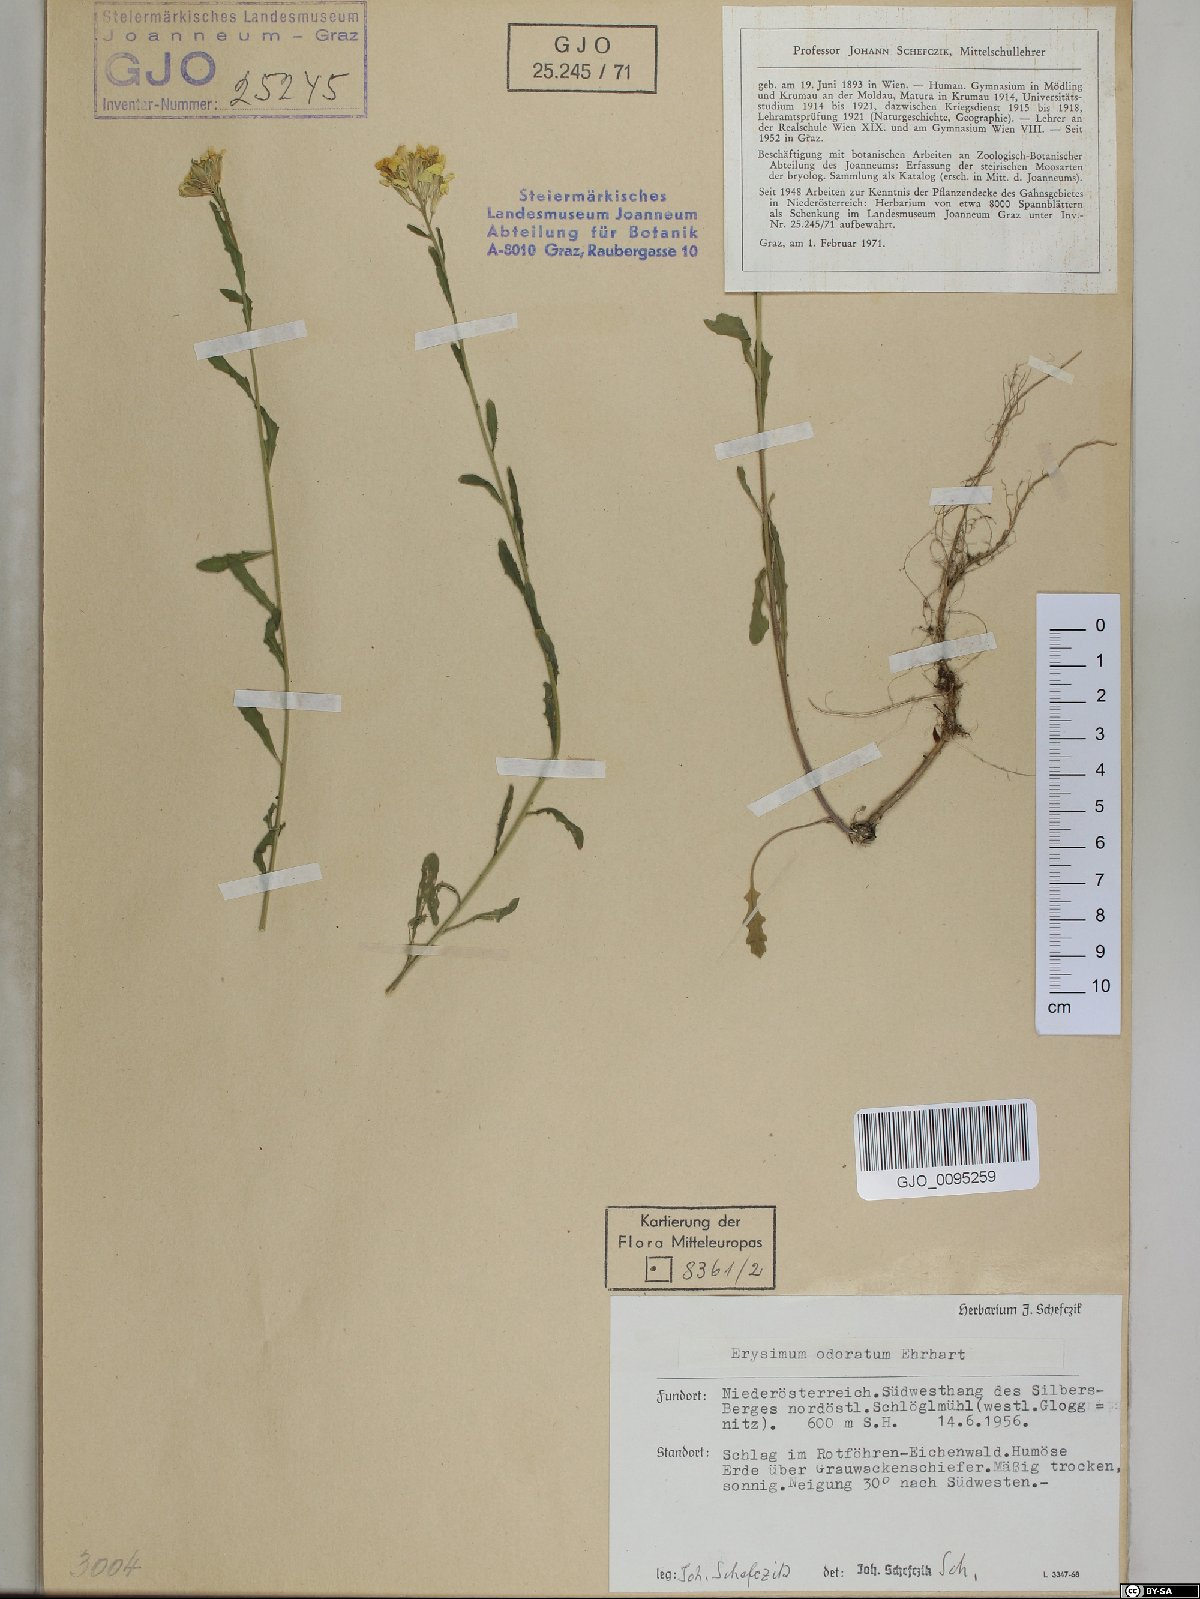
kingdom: Plantae
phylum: Tracheophyta
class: Magnoliopsida
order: Brassicales
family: Brassicaceae
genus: Erysimum
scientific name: Erysimum odoratum
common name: Smelly wallflower
